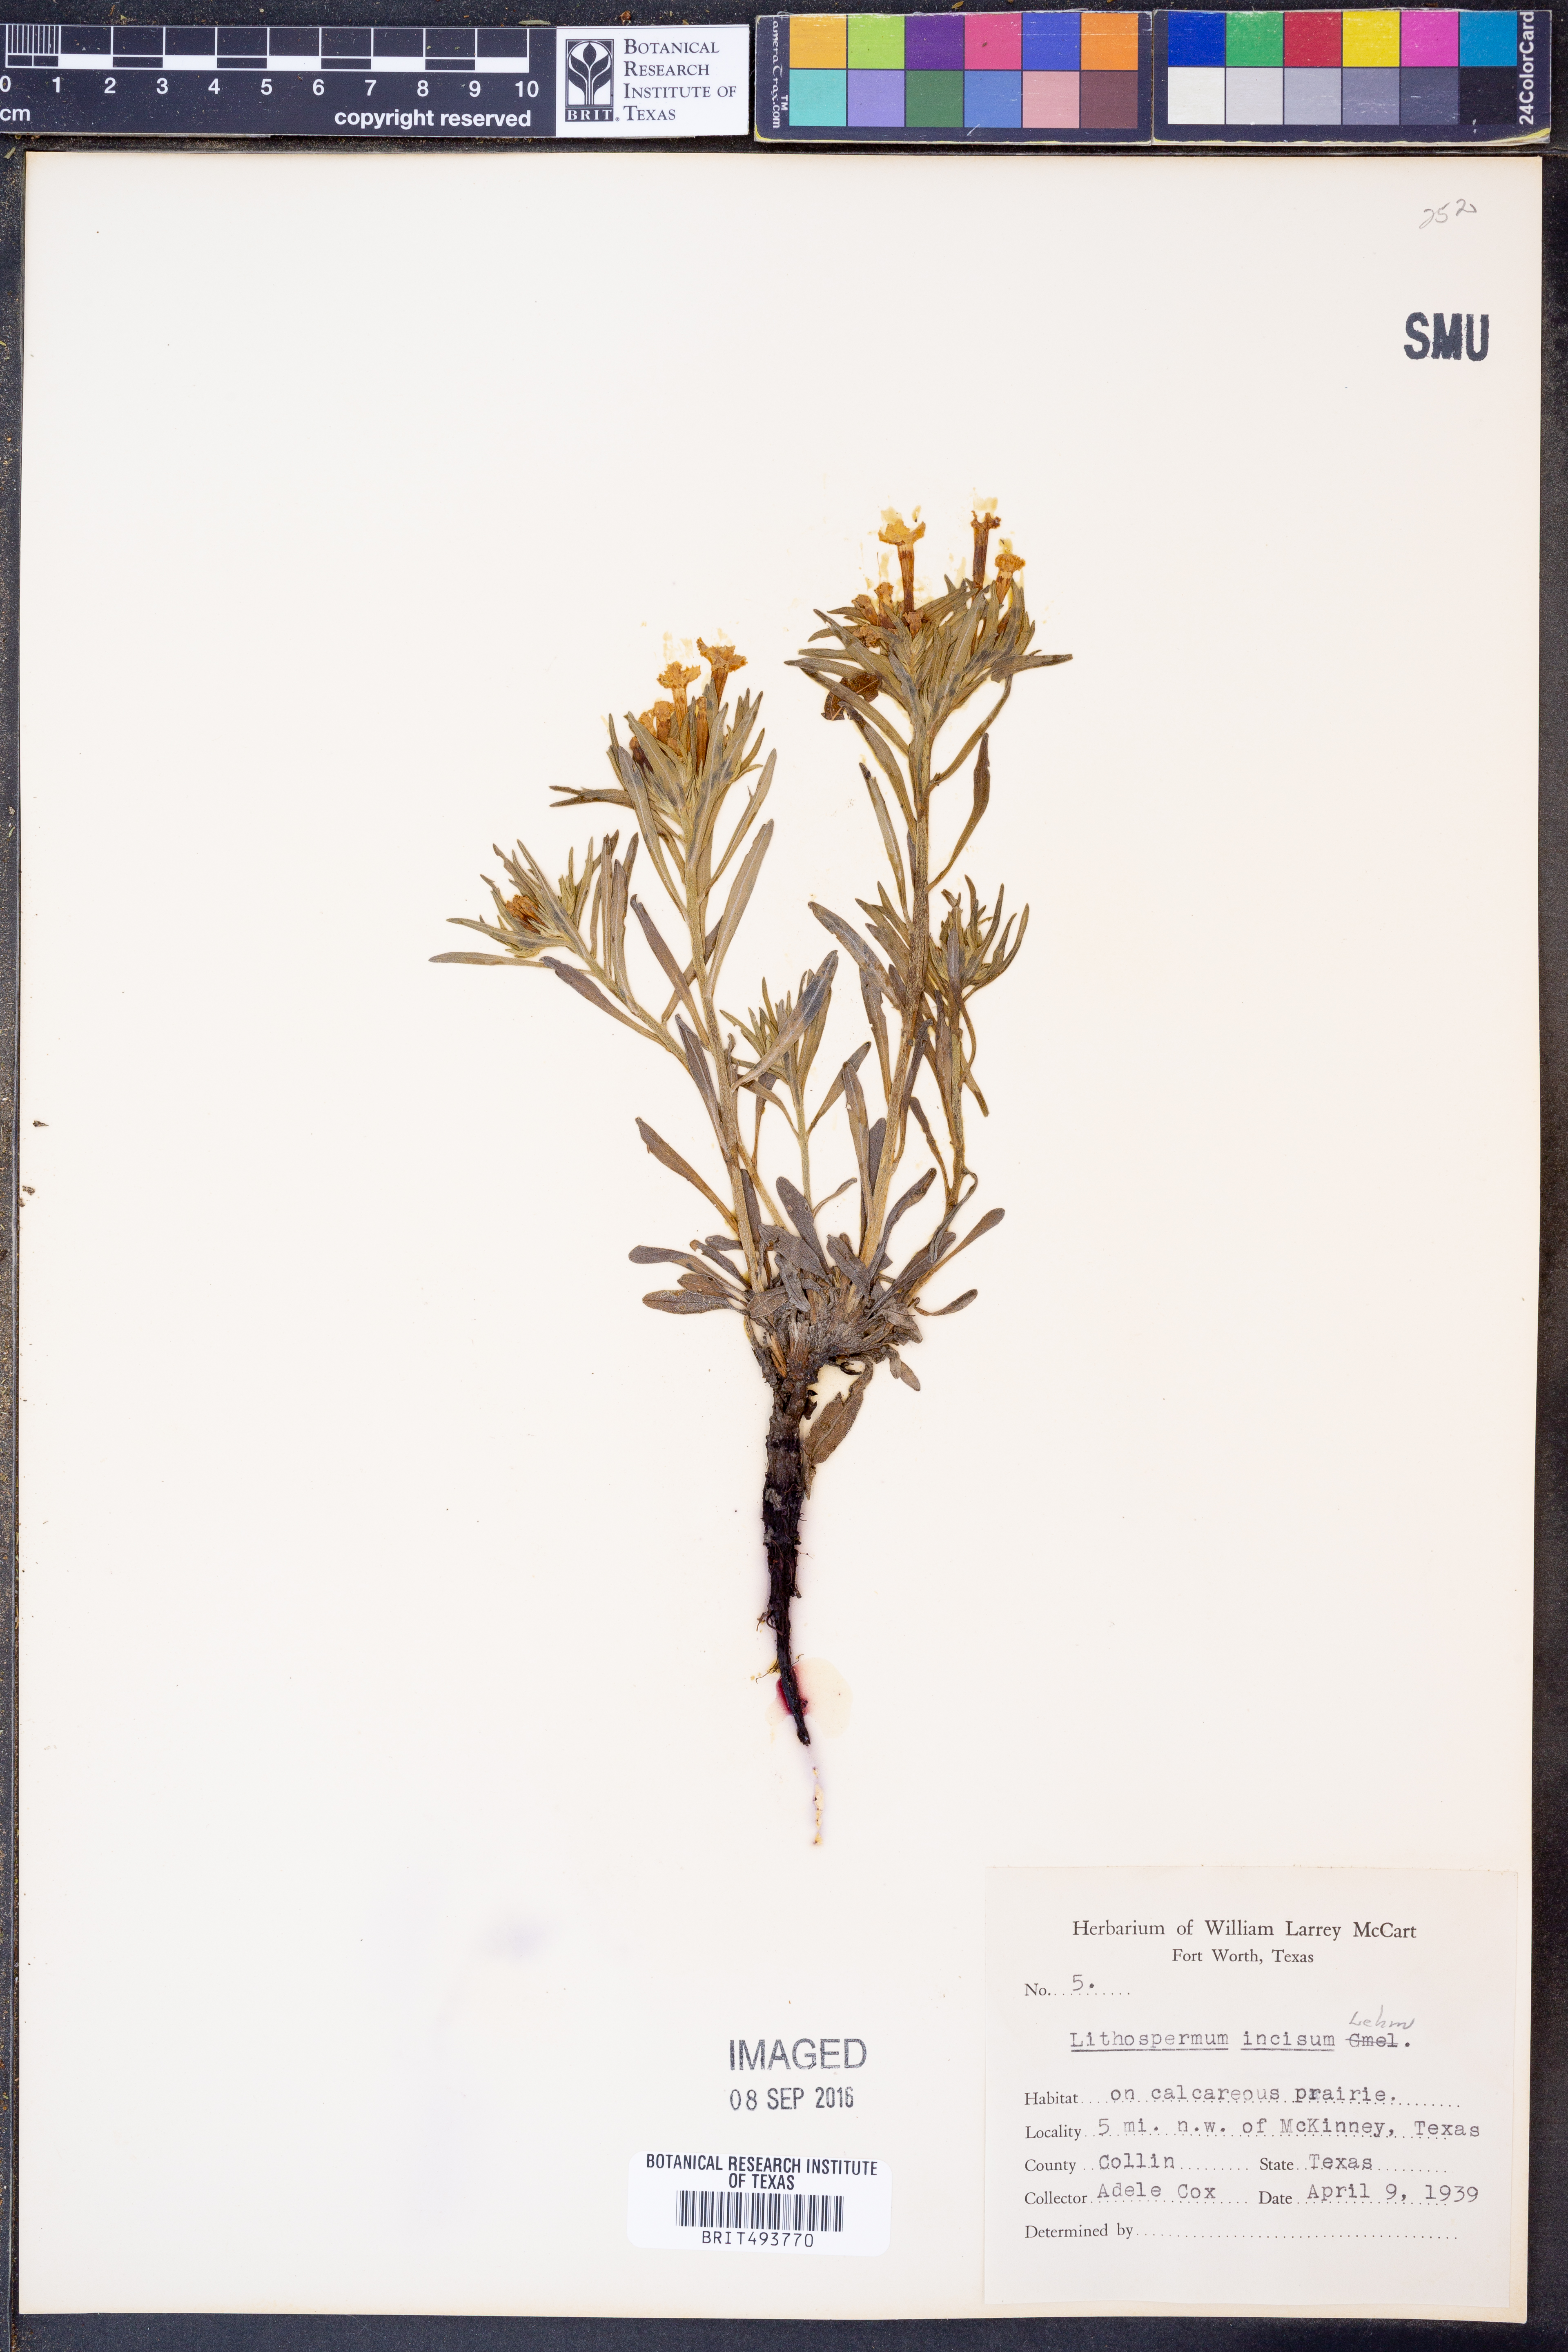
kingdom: Plantae
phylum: Tracheophyta
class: Magnoliopsida
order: Boraginales
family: Boraginaceae
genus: Lithospermum
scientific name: Lithospermum incisum
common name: Fringed gromwell
